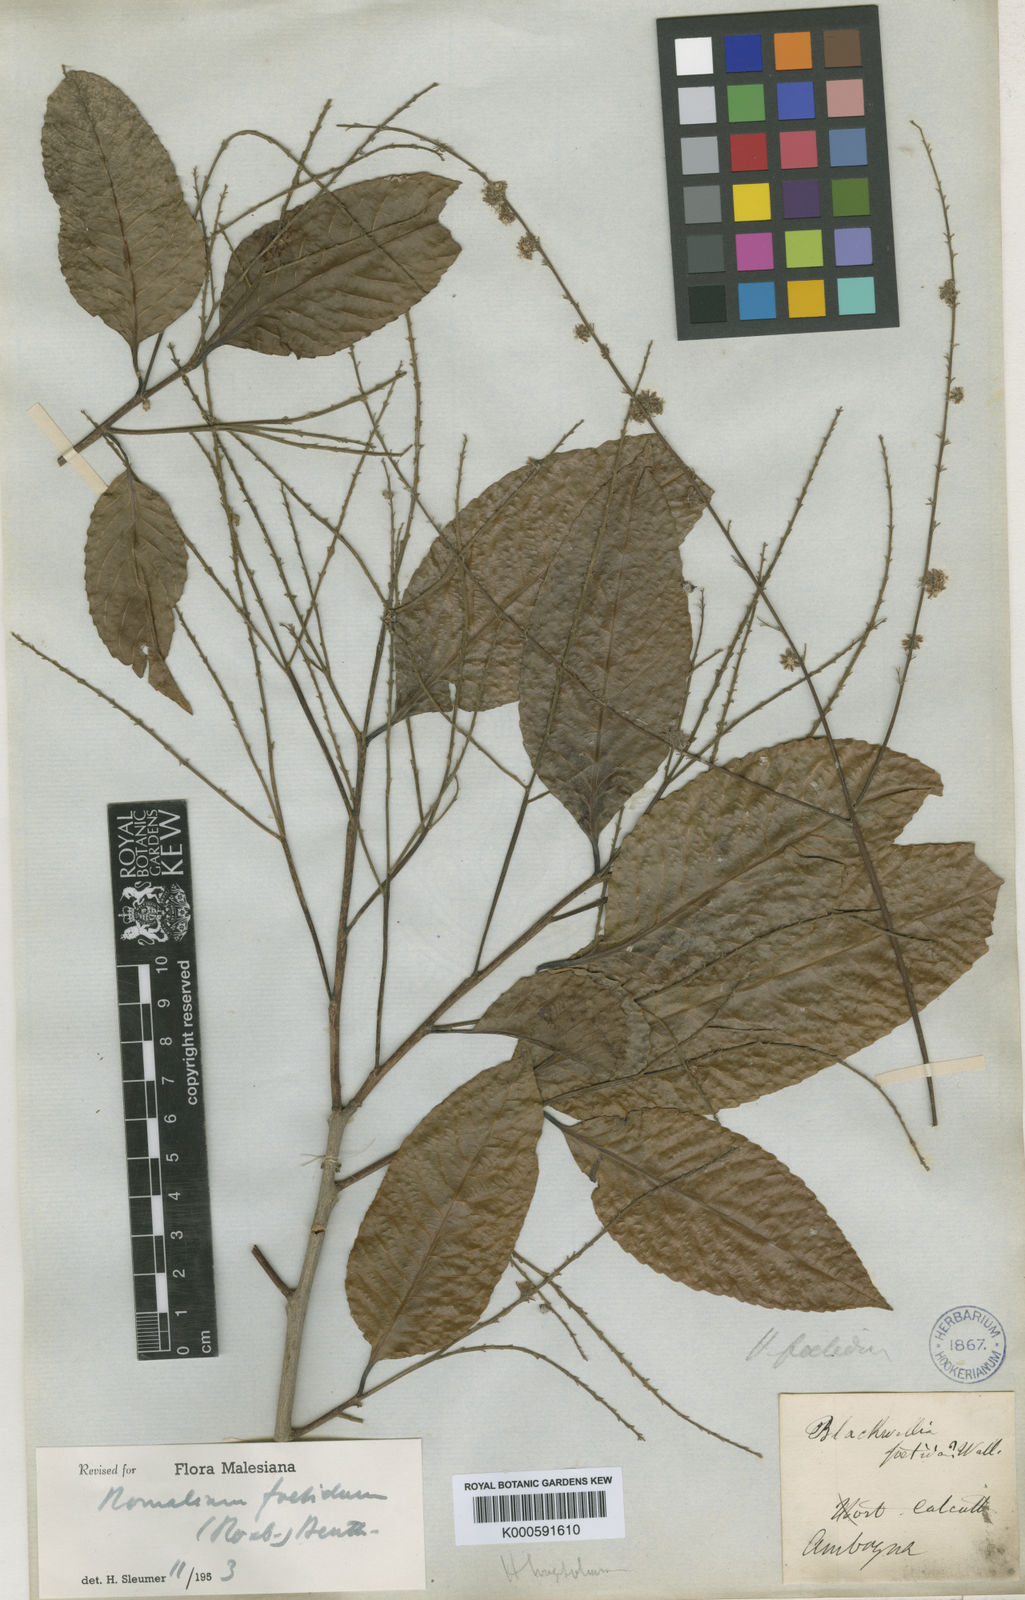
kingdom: Plantae
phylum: Tracheophyta
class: Magnoliopsida
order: Malpighiales
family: Salicaceae
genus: Homalium
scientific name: Homalium foetidum
